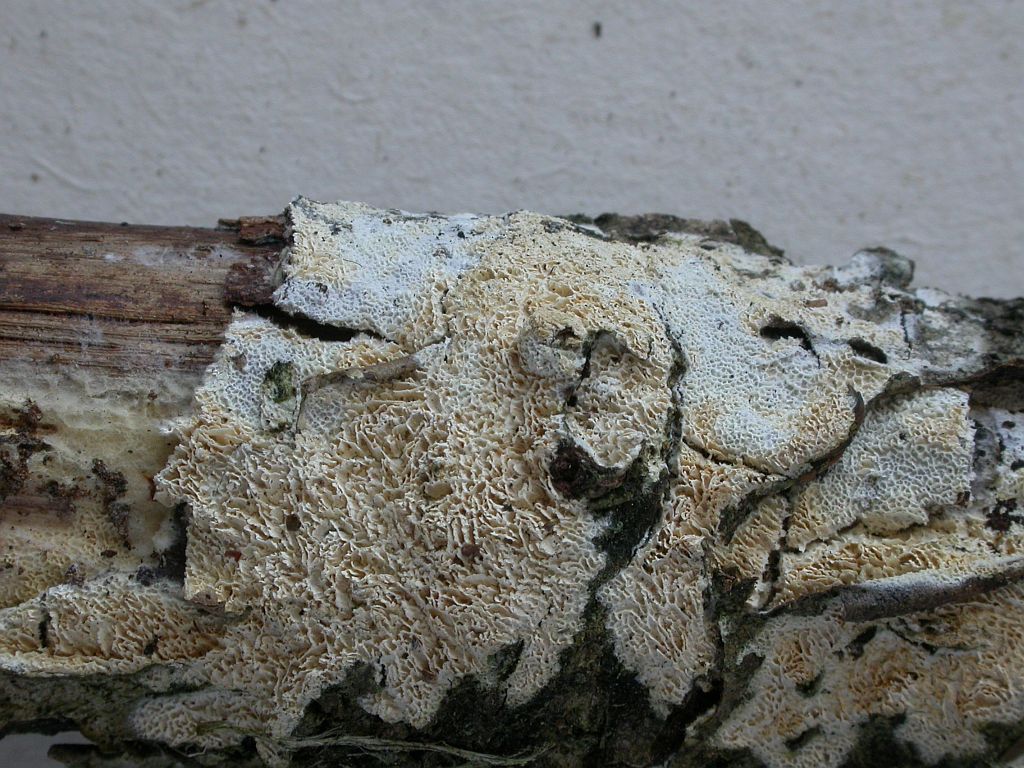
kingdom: Fungi
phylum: Basidiomycota
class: Agaricomycetes
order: Hymenochaetales
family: Schizoporaceae
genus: Xylodon
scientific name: Xylodon subtropicus
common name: labyrint-tandsvamp
